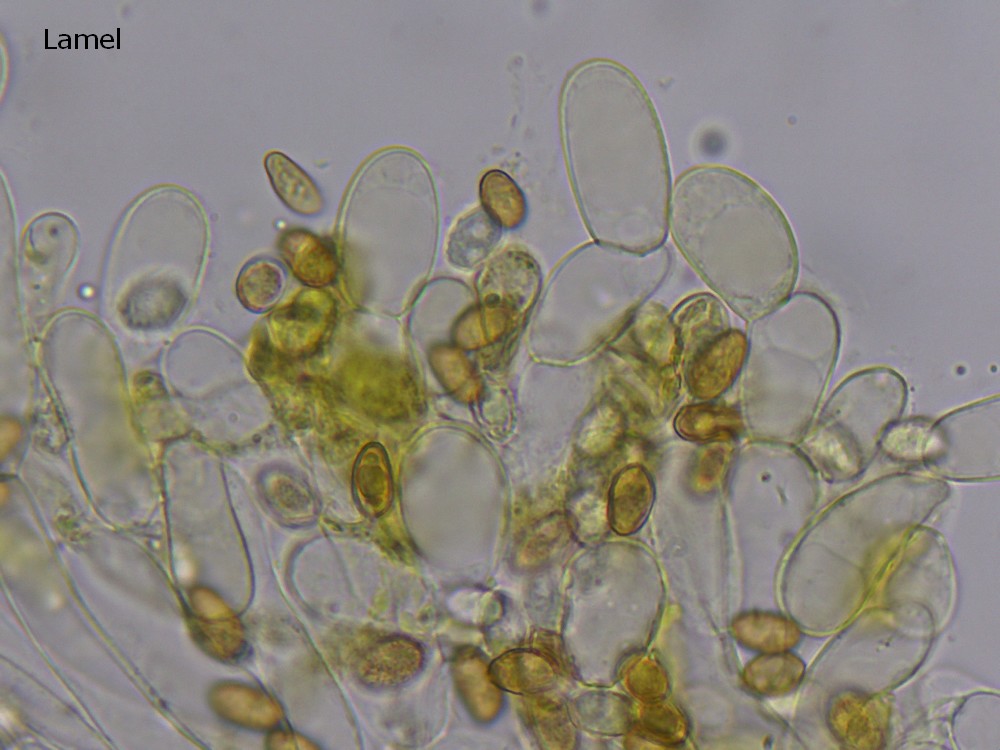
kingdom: Fungi
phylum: Basidiomycota
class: Agaricomycetes
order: Agaricales
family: Cortinariaceae
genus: Cortinarius
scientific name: Cortinarius pratensis
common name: hede-slørhat
